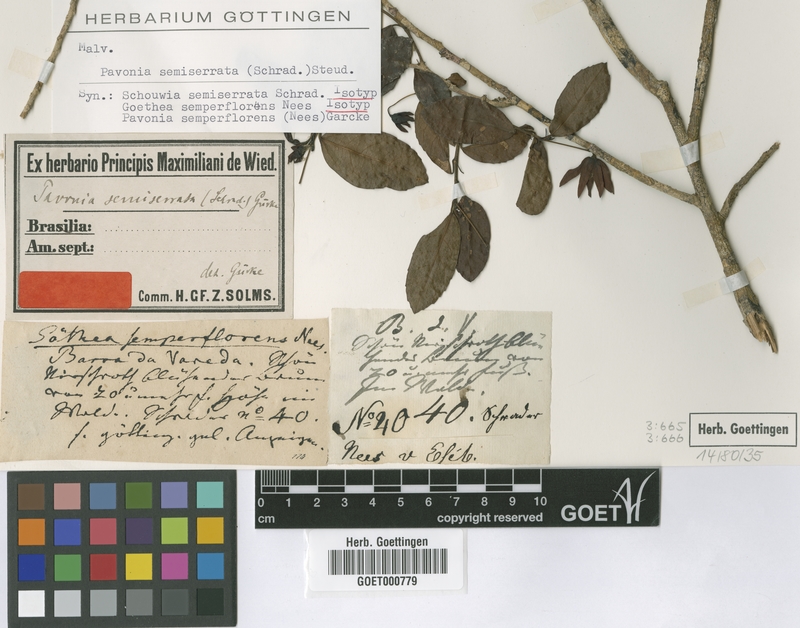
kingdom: Plantae
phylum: Tracheophyta
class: Magnoliopsida
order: Malvales
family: Malvaceae
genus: Pavonia
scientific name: Pavonia semiserrata
